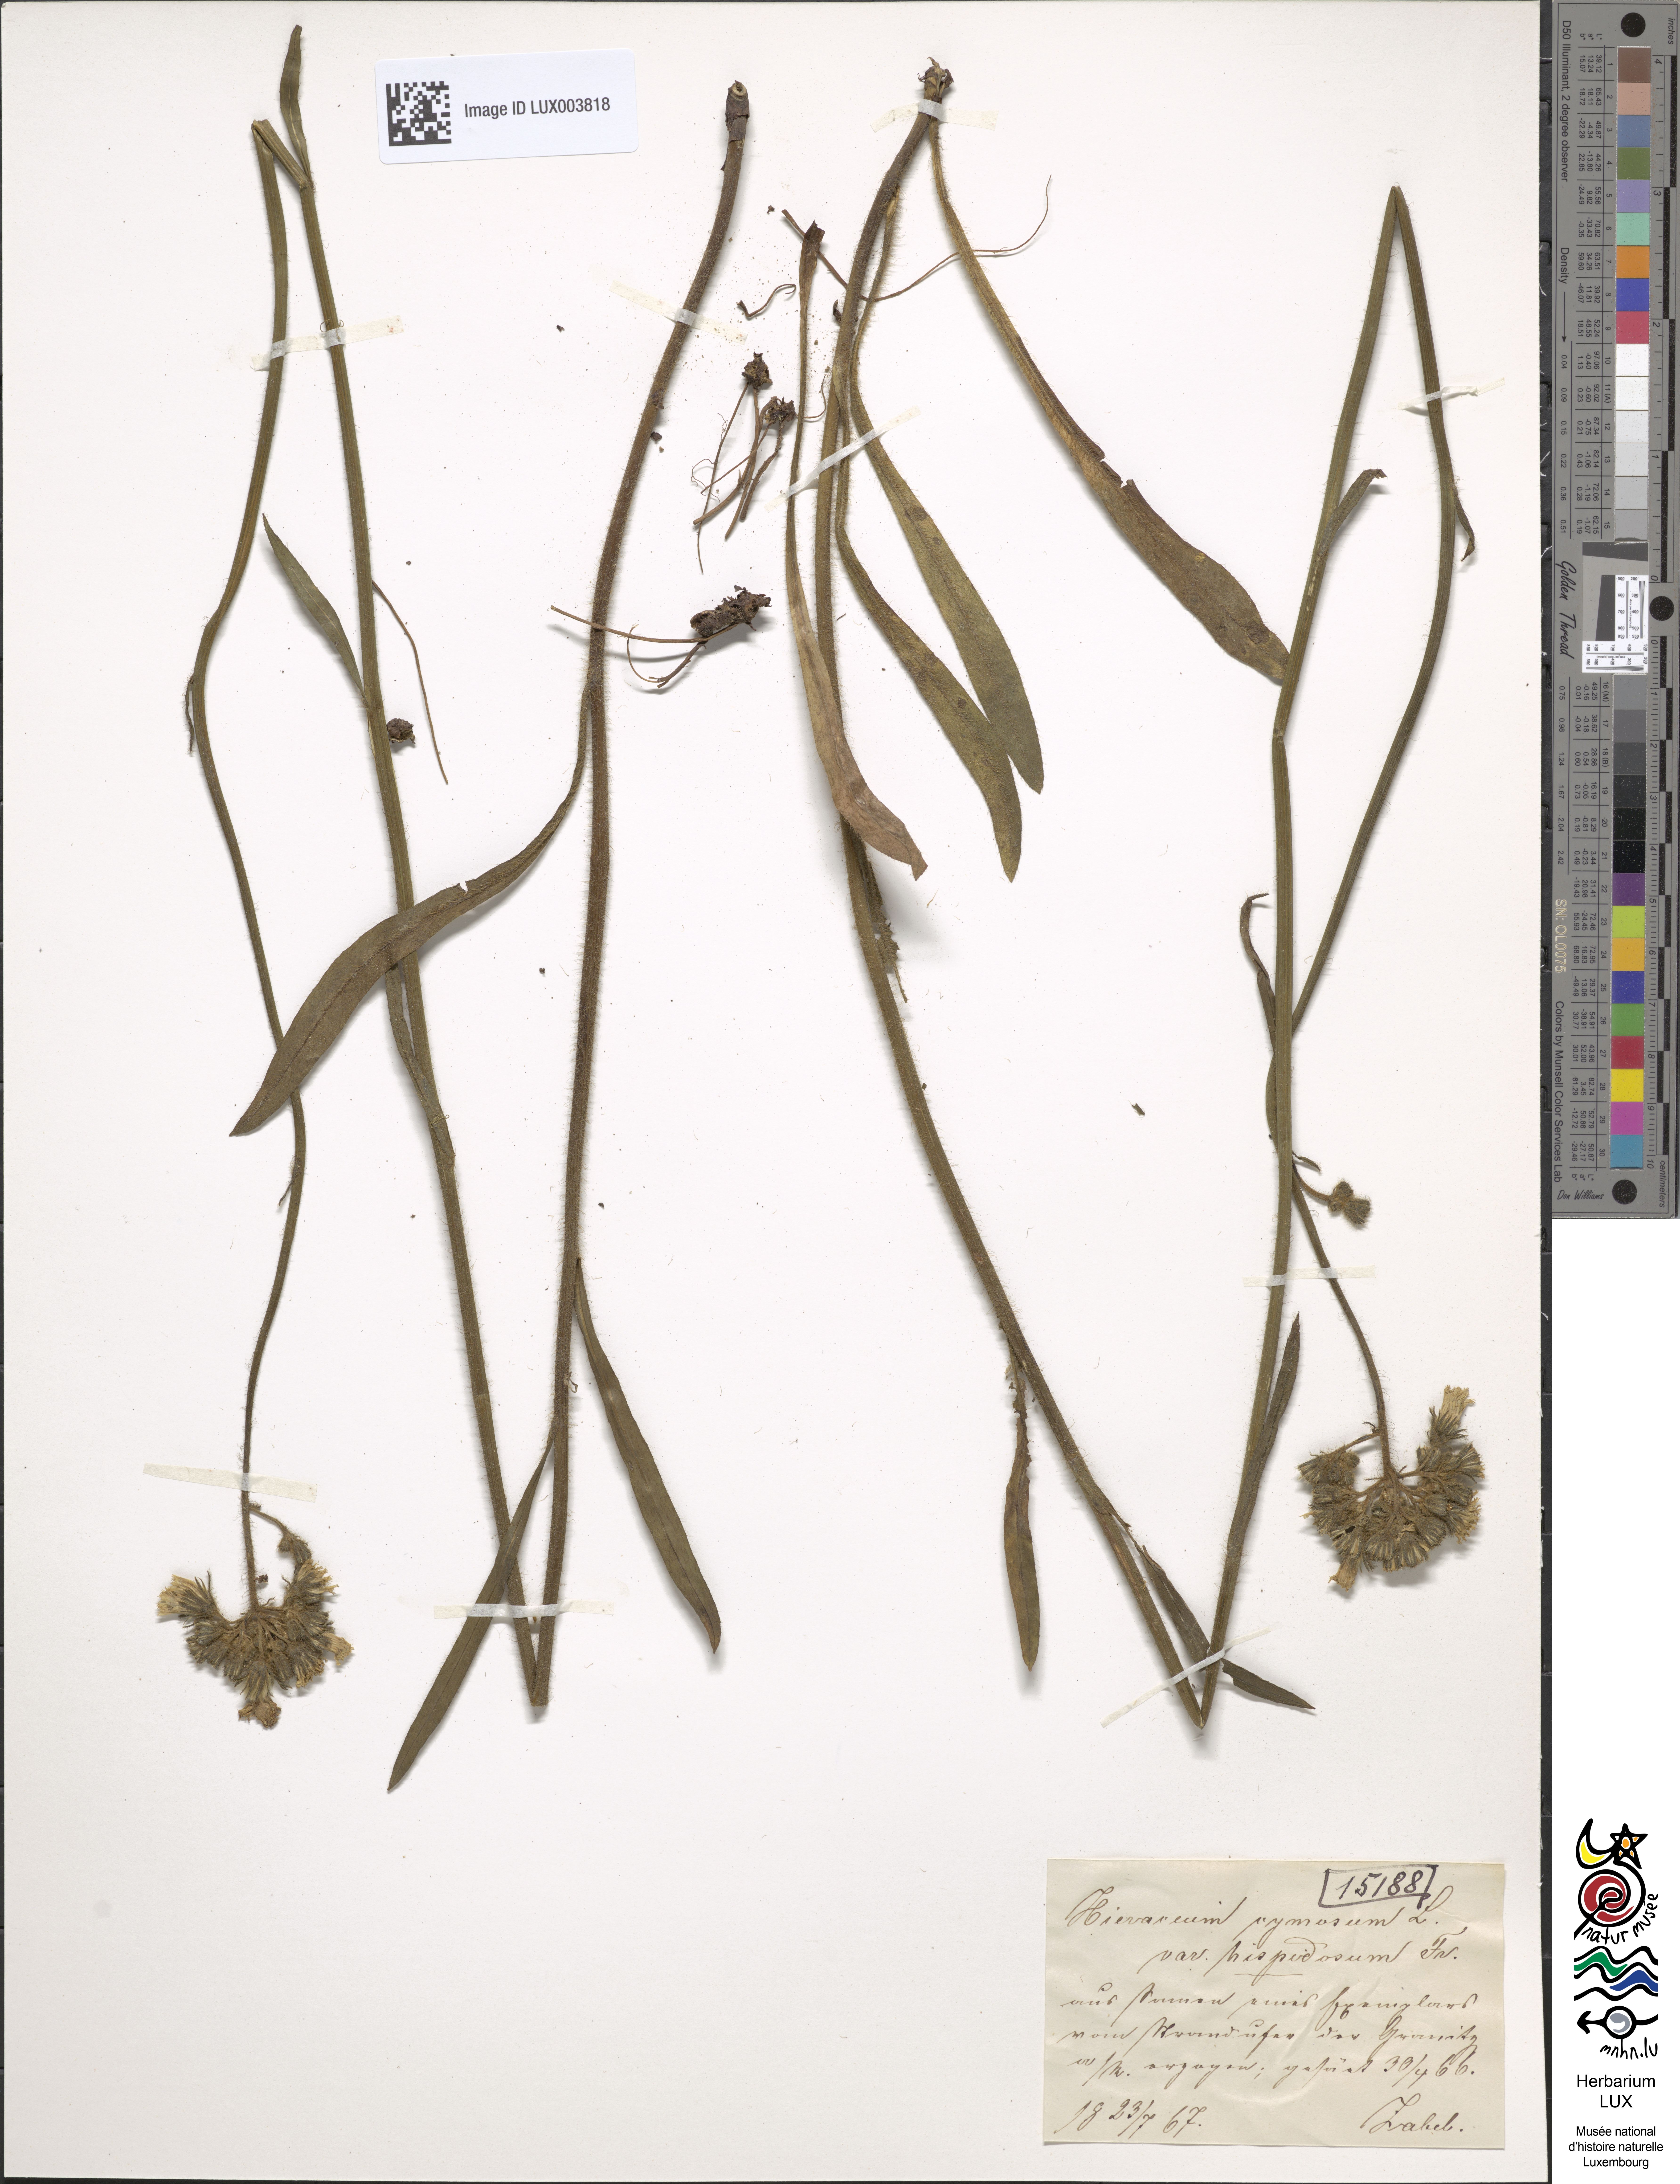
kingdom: Plantae
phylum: Tracheophyta
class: Magnoliopsida
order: Asterales
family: Asteraceae
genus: Pilosella
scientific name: Pilosella cymosa
